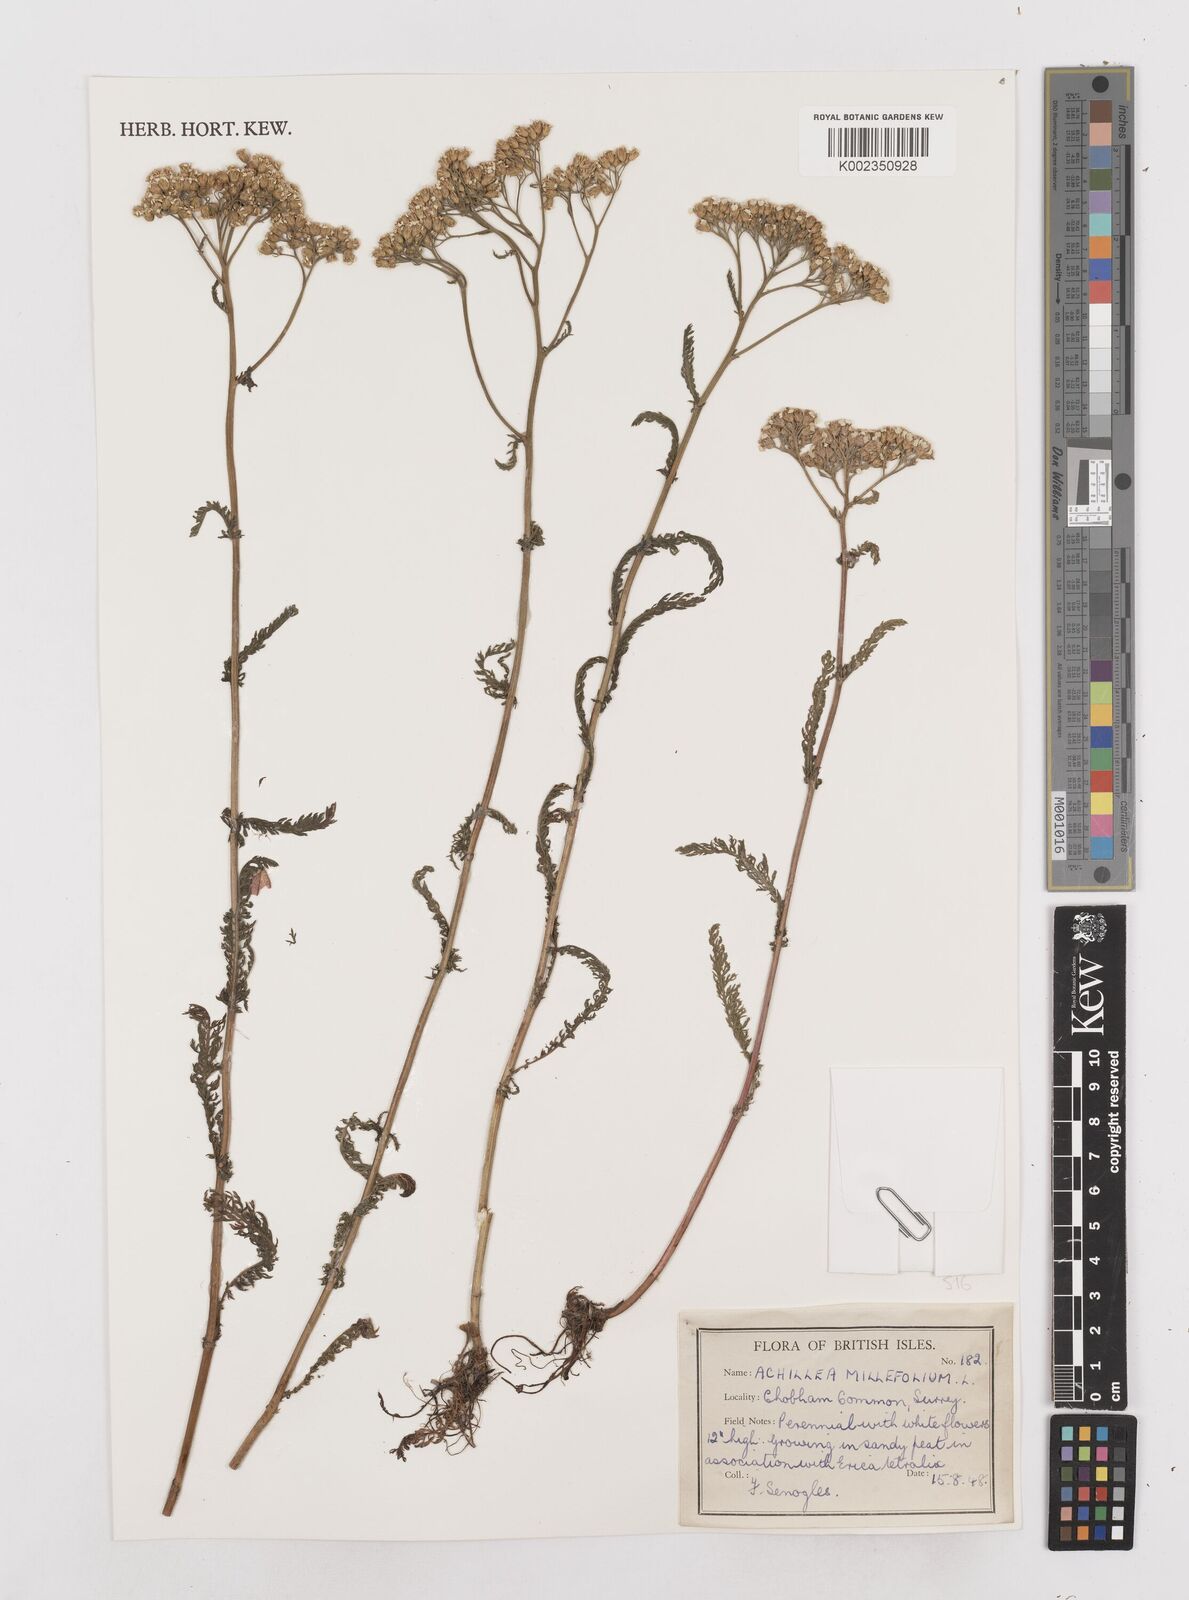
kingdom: Plantae
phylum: Tracheophyta
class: Magnoliopsida
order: Asterales
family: Asteraceae
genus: Achillea
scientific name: Achillea distans
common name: Tall yarrow
